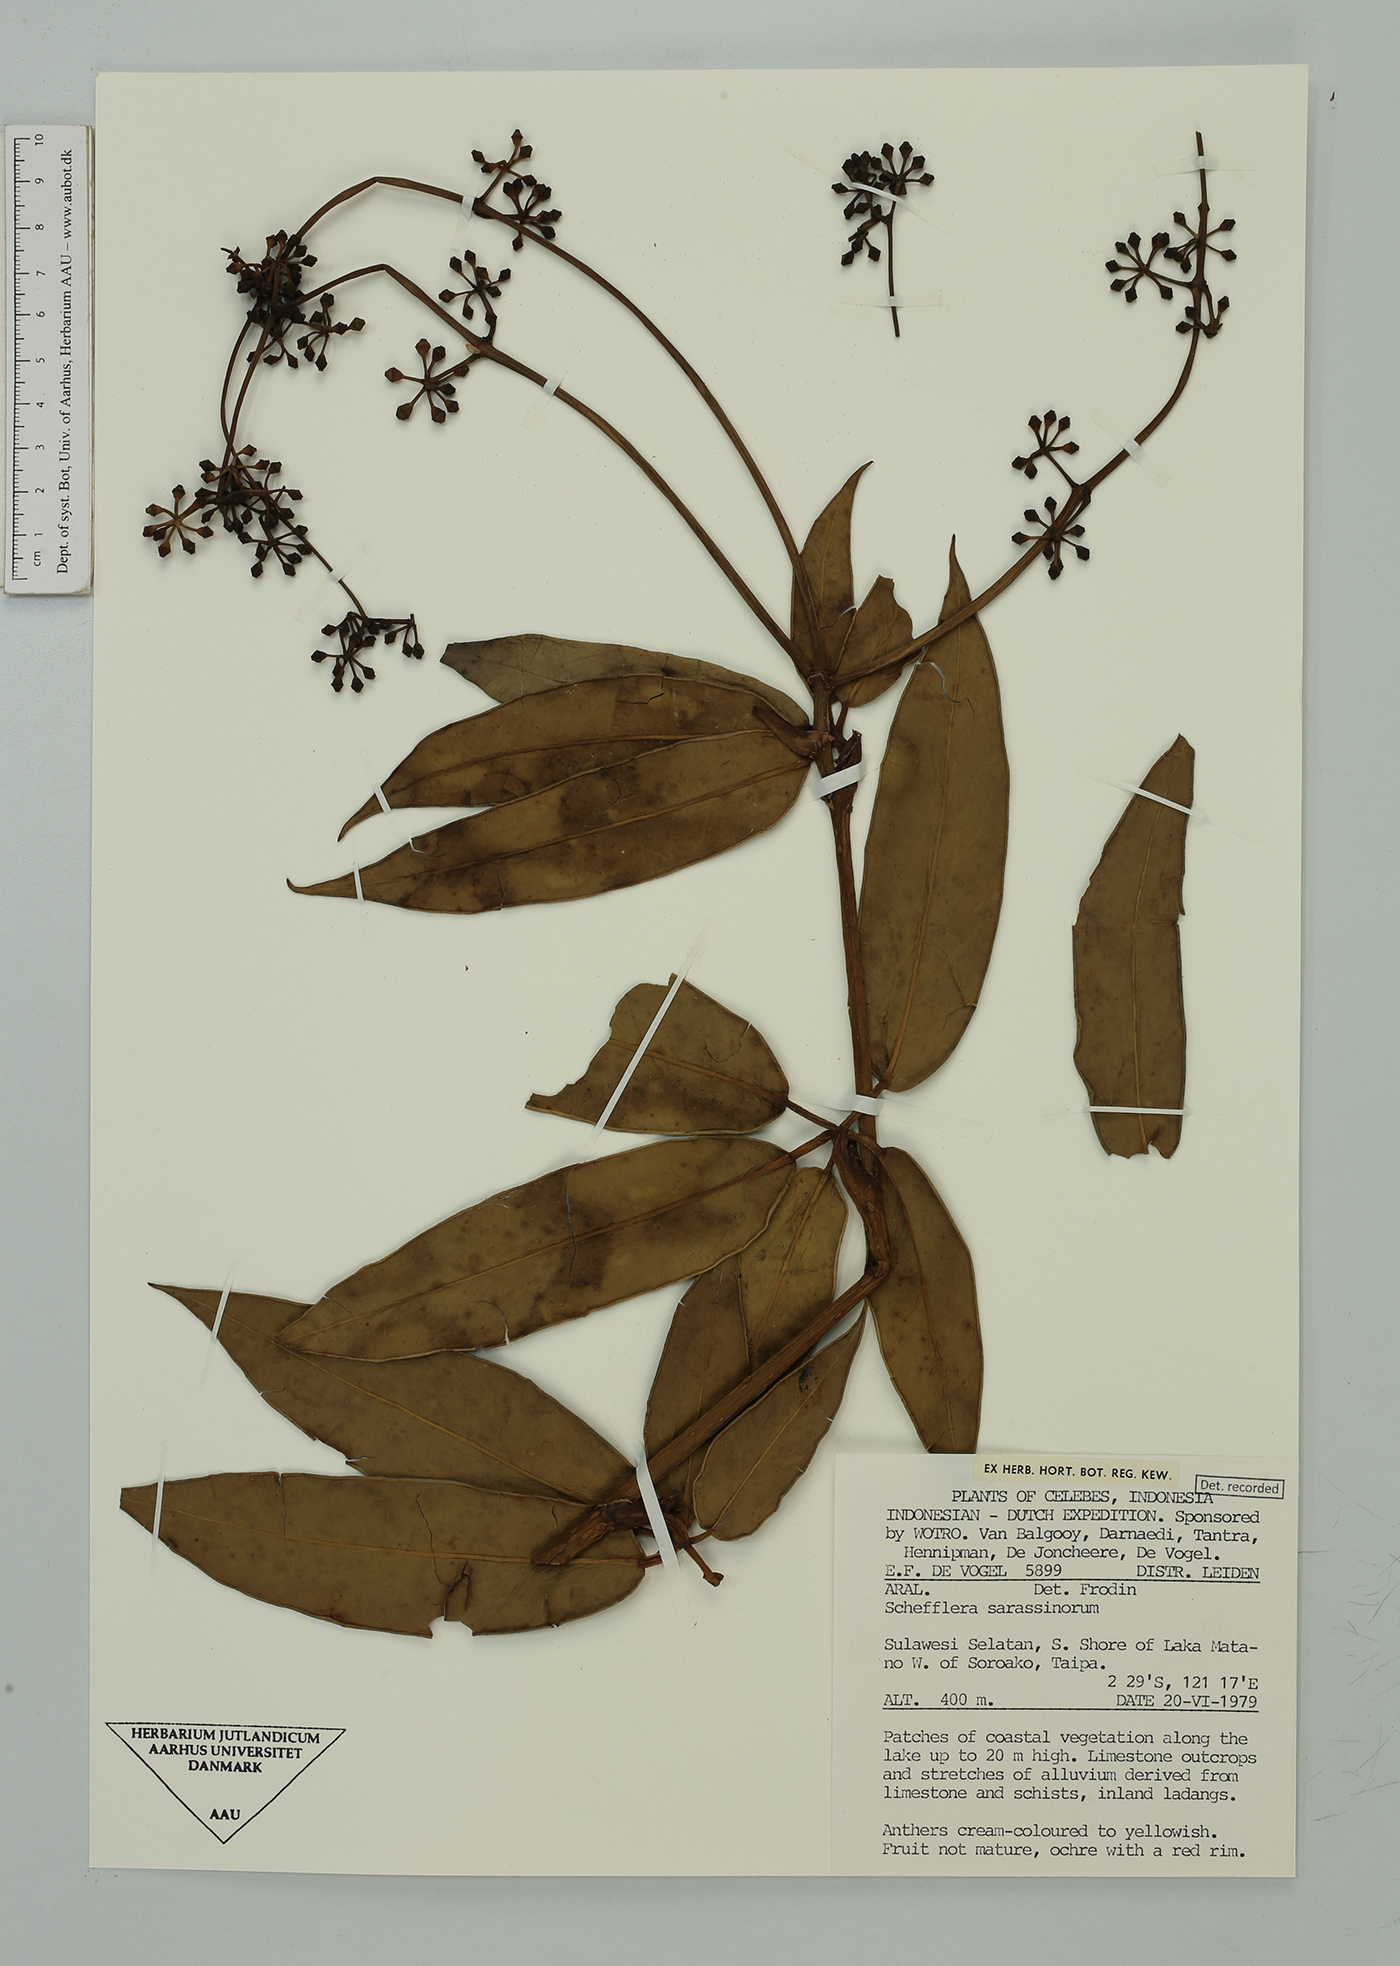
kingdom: Plantae
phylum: Tracheophyta
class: Magnoliopsida
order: Apiales
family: Araliaceae
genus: Heptapleurum
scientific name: Heptapleurum sarasinorum
